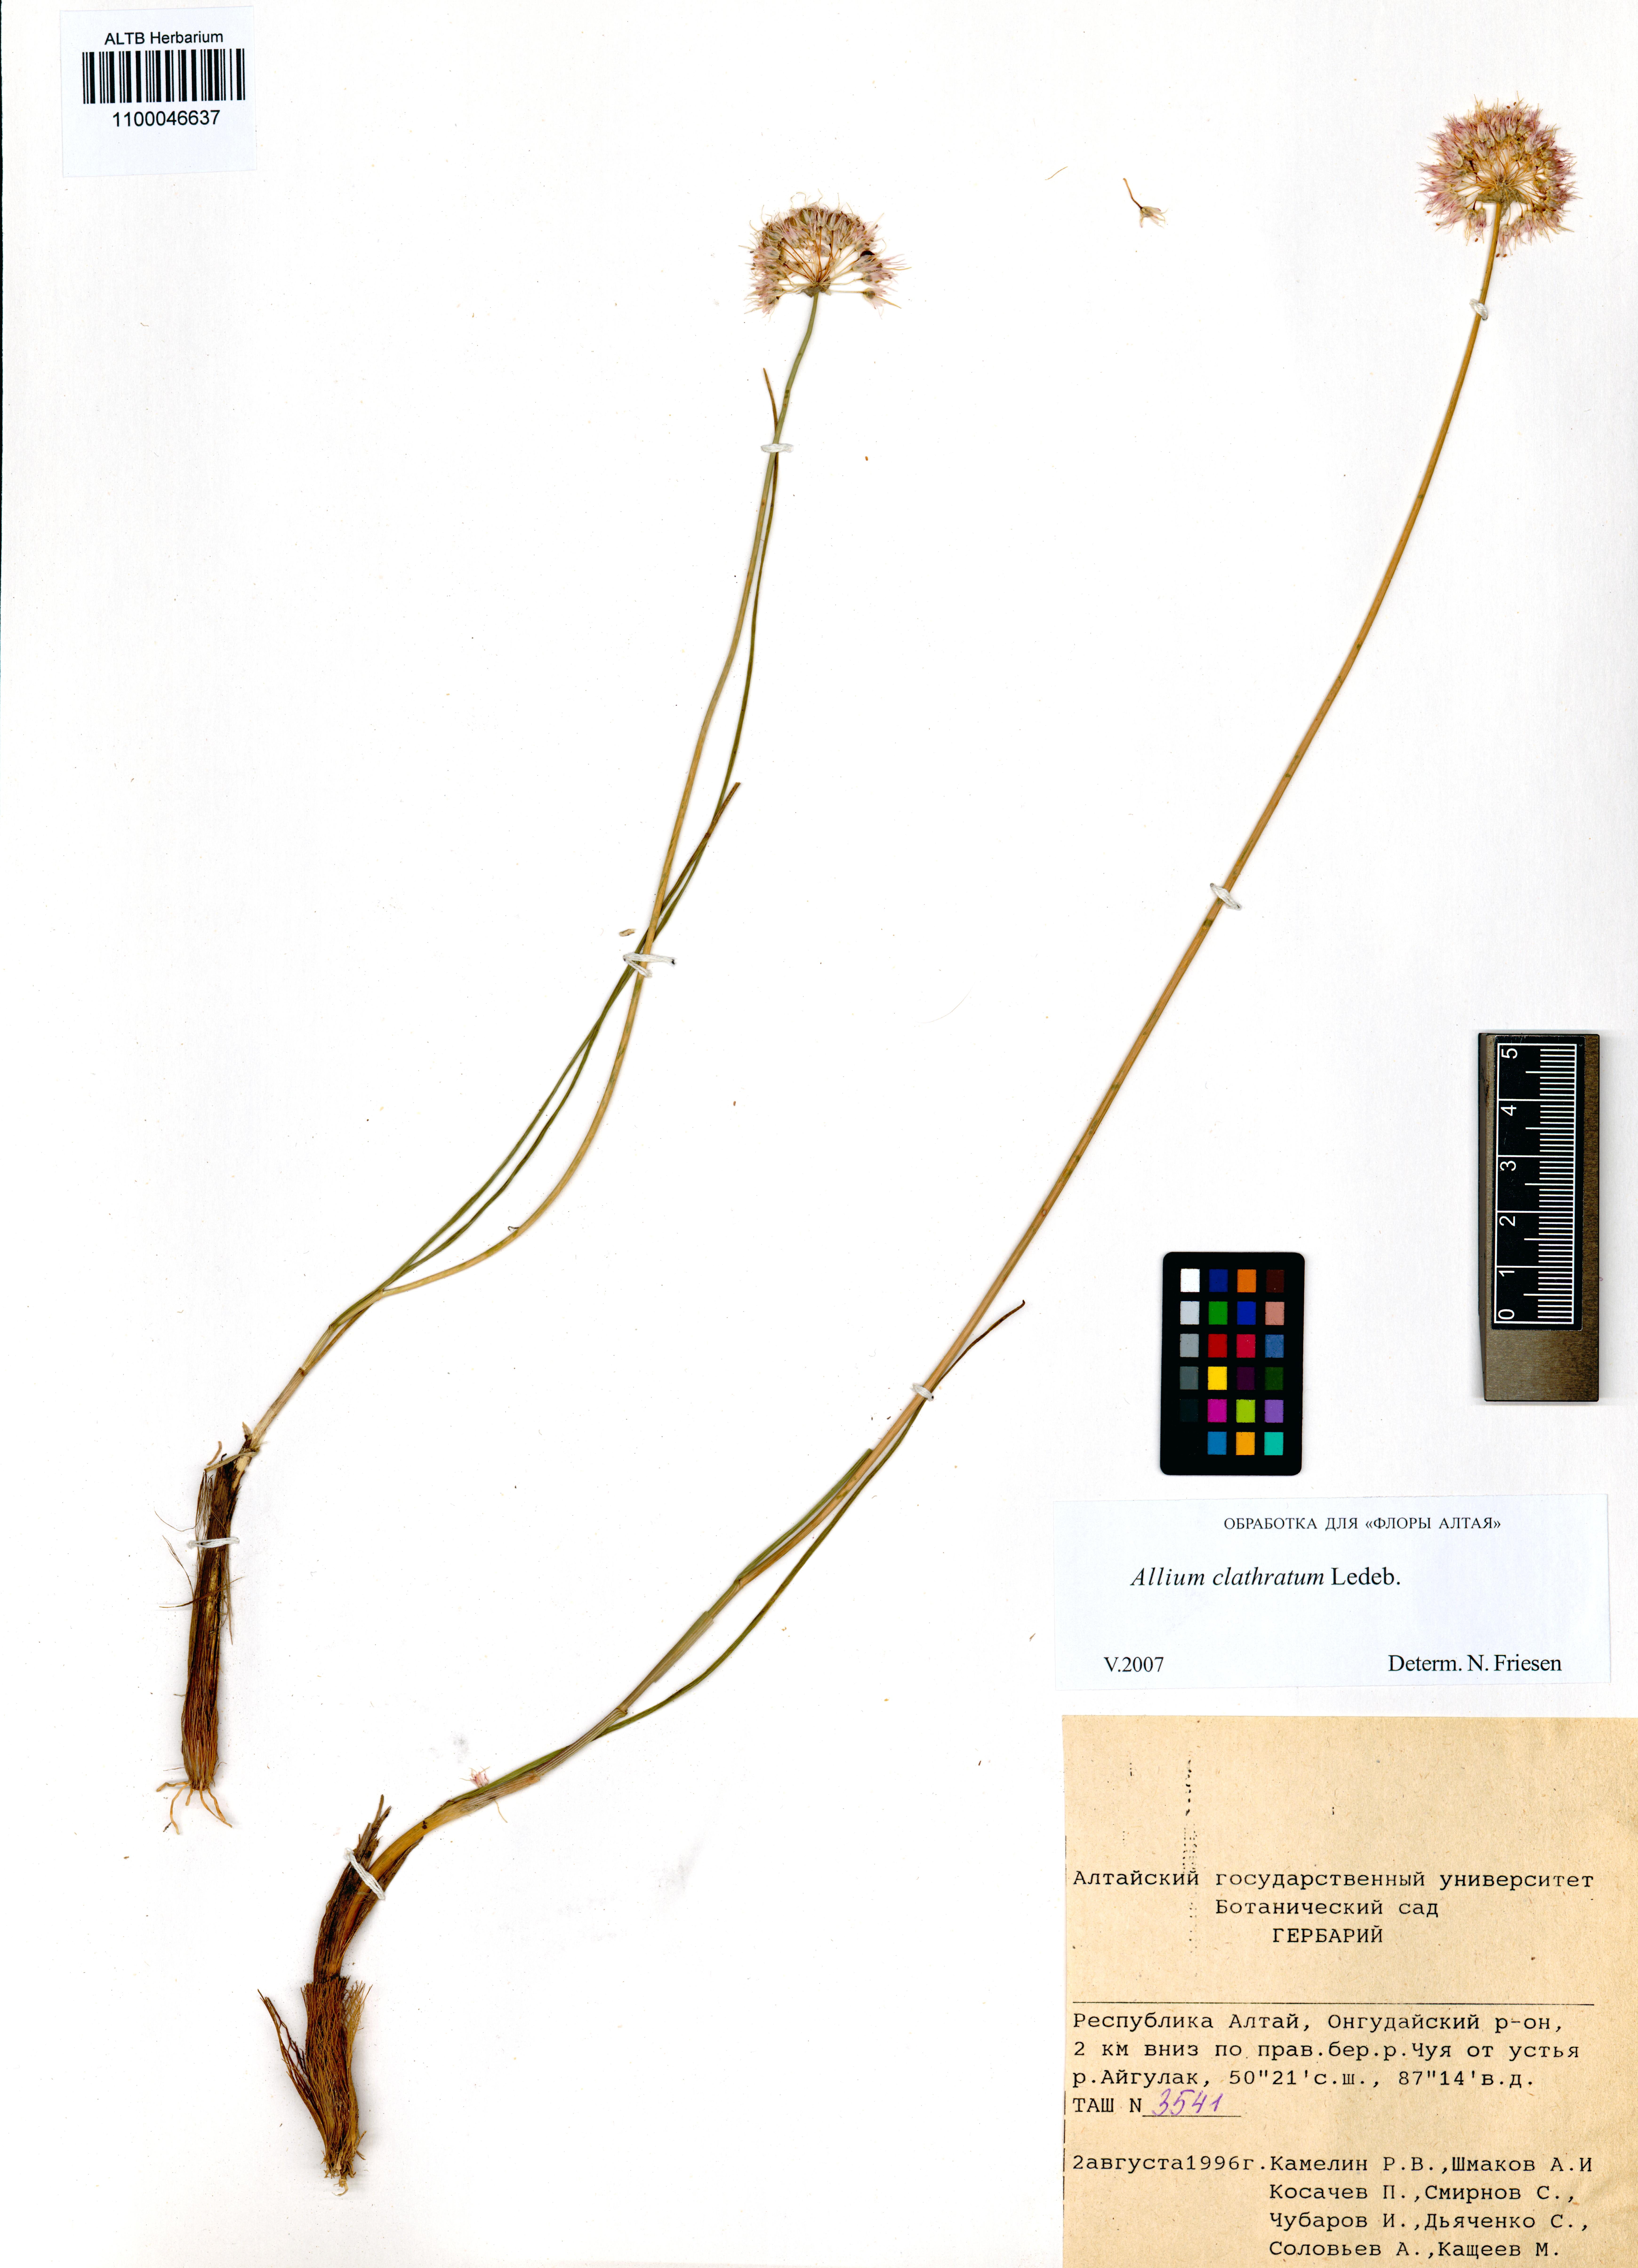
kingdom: Plantae
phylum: Tracheophyta
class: Liliopsida
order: Asparagales
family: Amaryllidaceae
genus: Allium
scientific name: Allium clathratum
